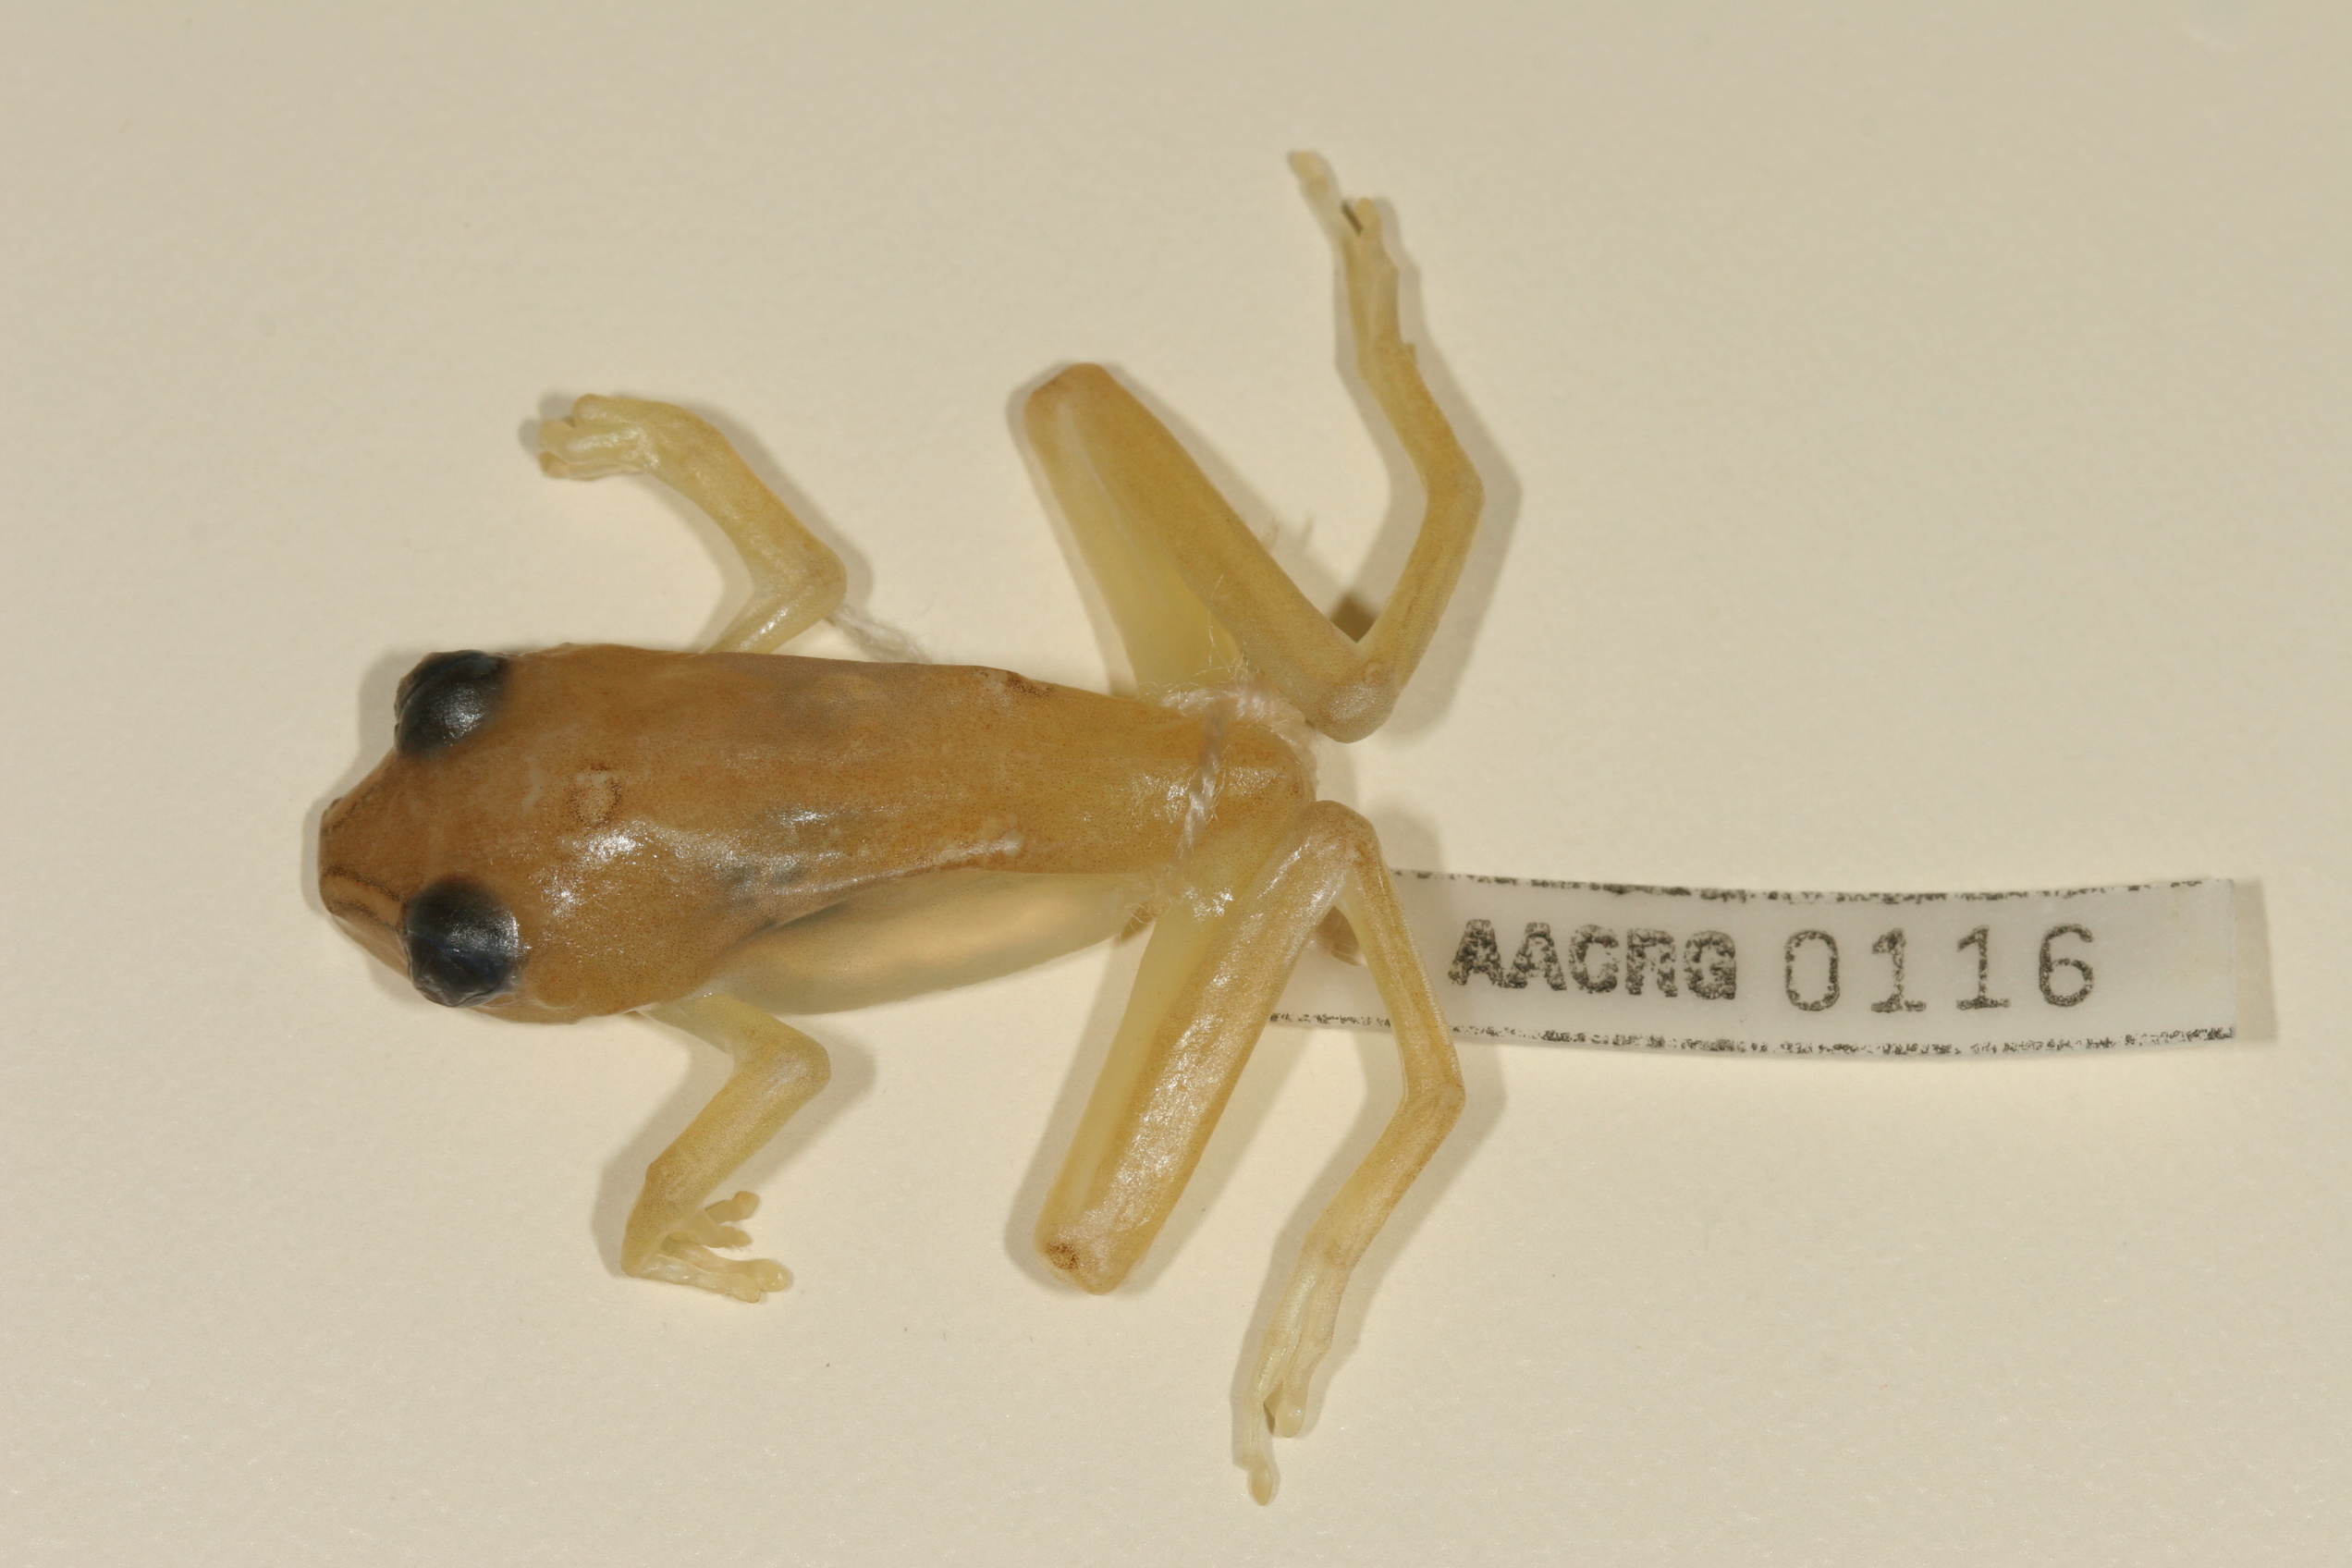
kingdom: Animalia
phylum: Chordata
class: Amphibia
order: Anura
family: Hyperoliidae
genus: Hyperolius
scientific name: Hyperolius argus
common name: Argus reed frog
